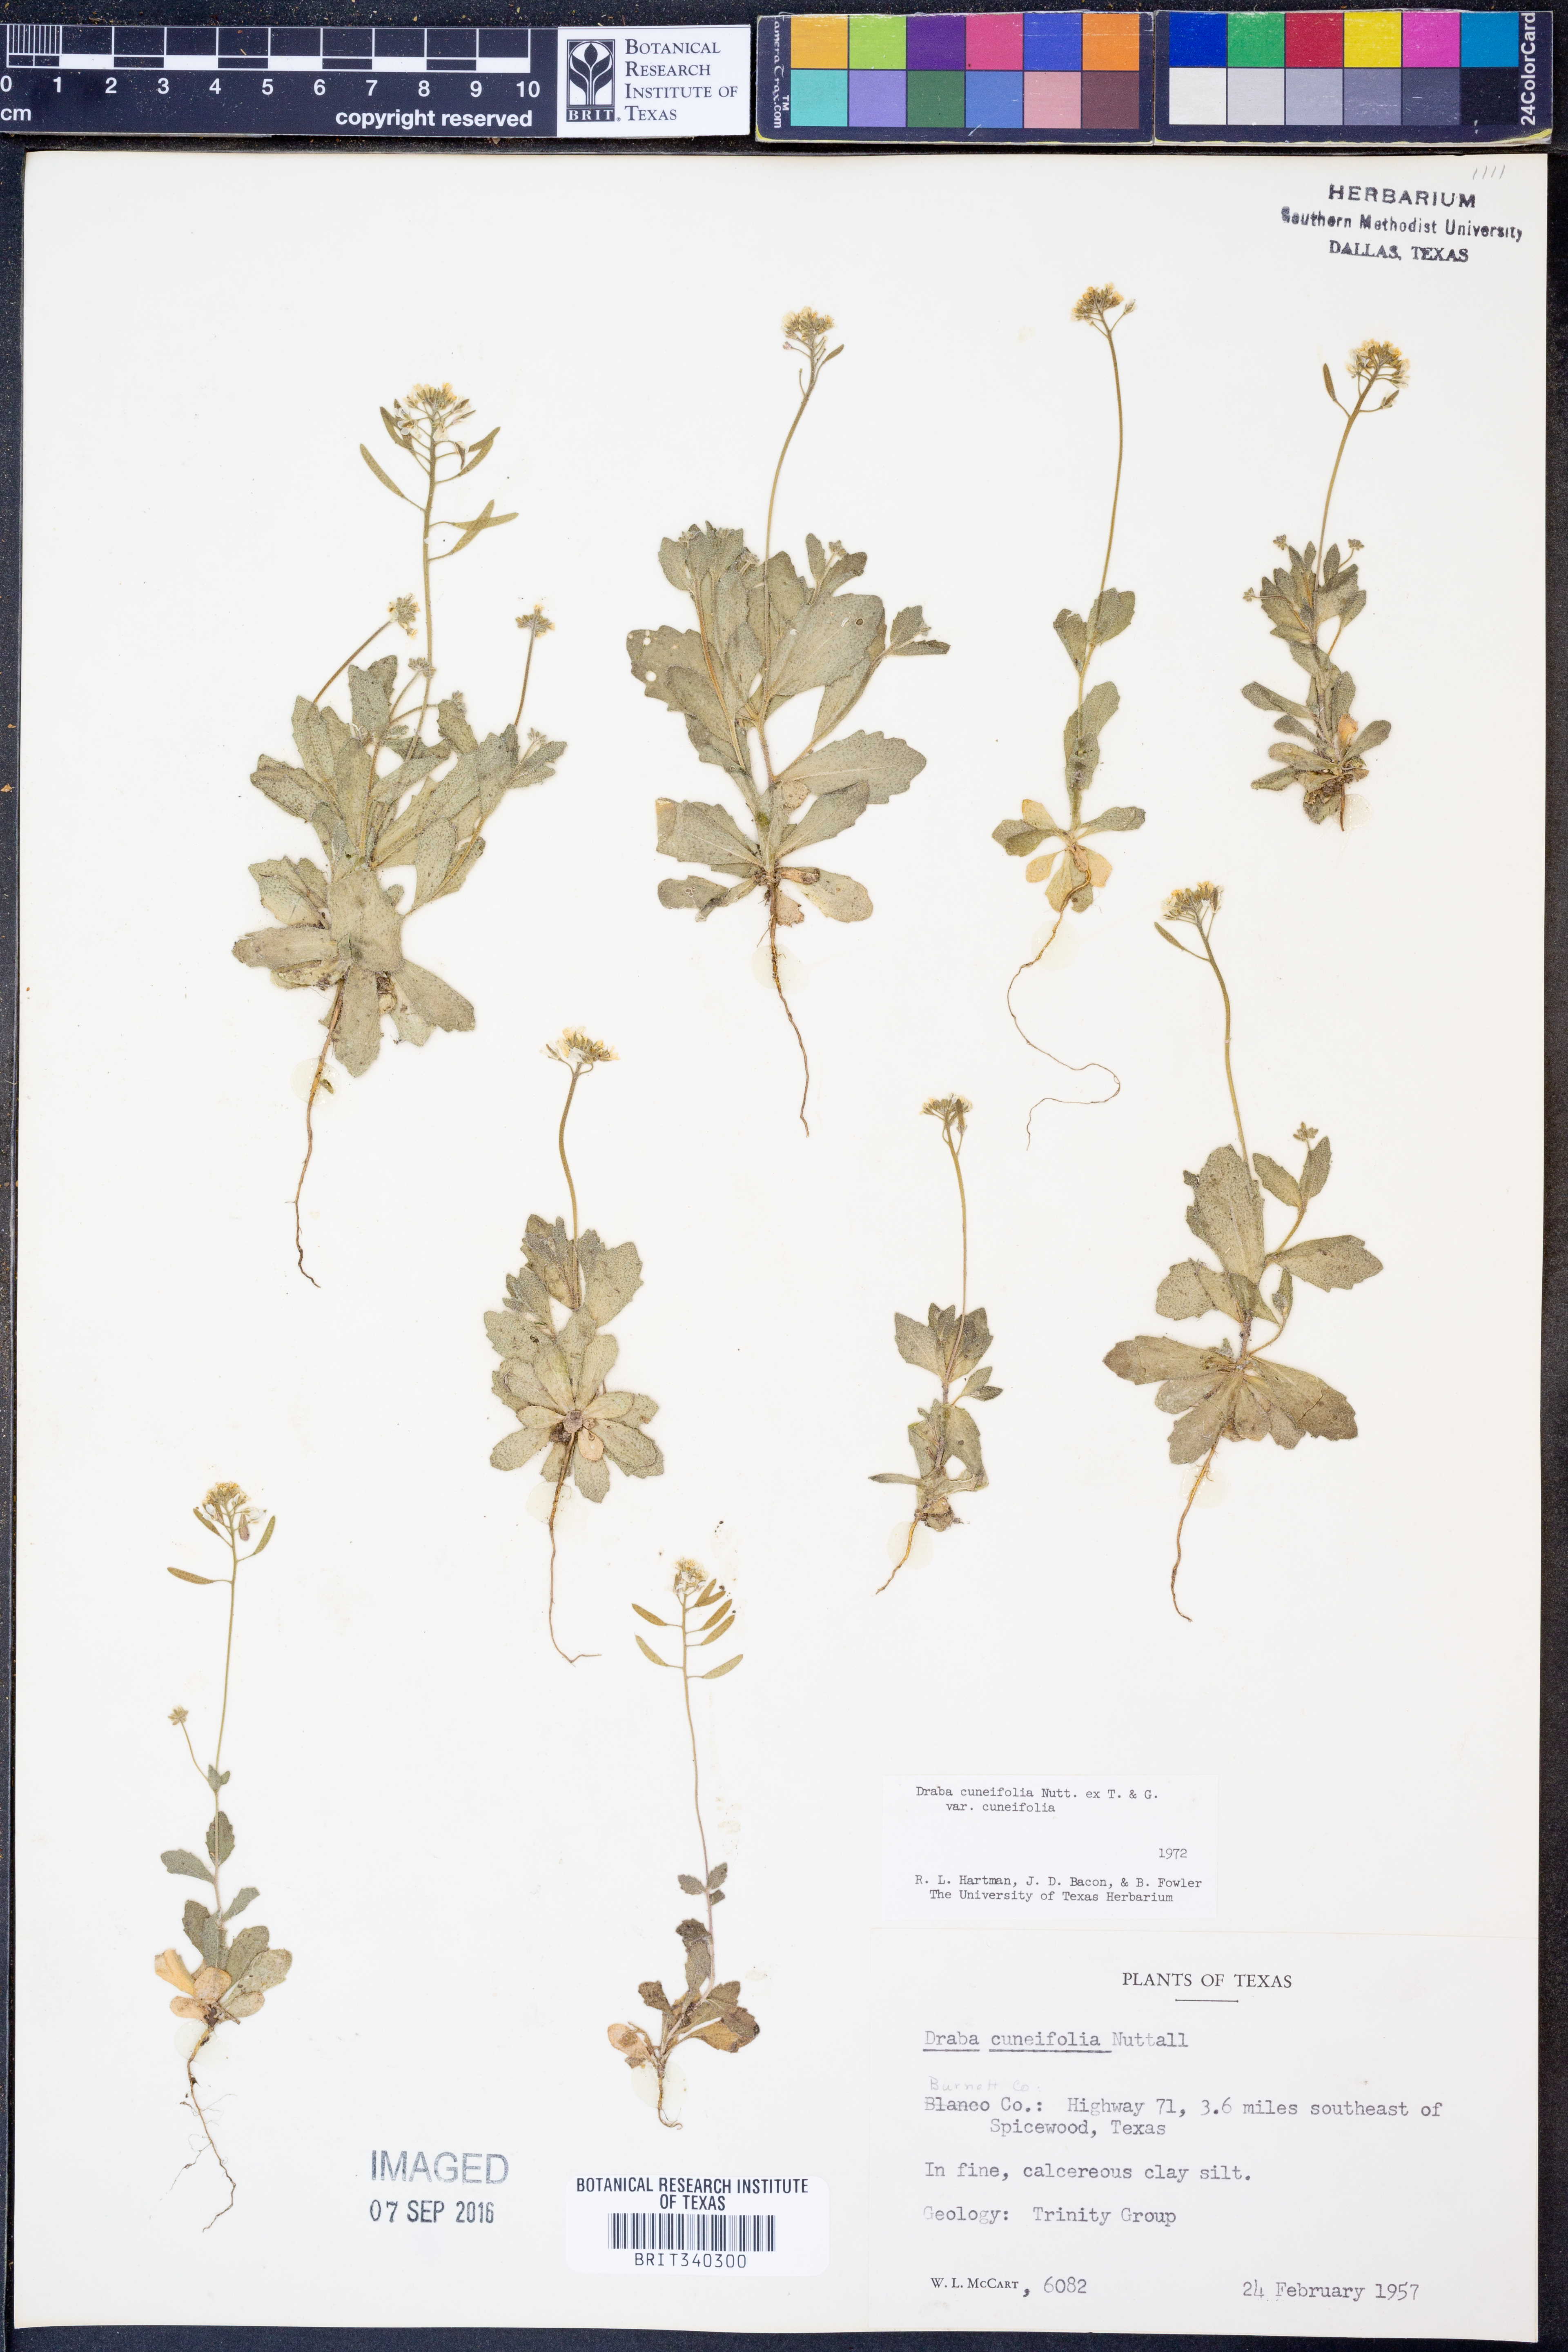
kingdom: Plantae
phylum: Tracheophyta
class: Magnoliopsida
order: Brassicales
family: Brassicaceae
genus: Tomostima
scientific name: Tomostima cuneifolia
